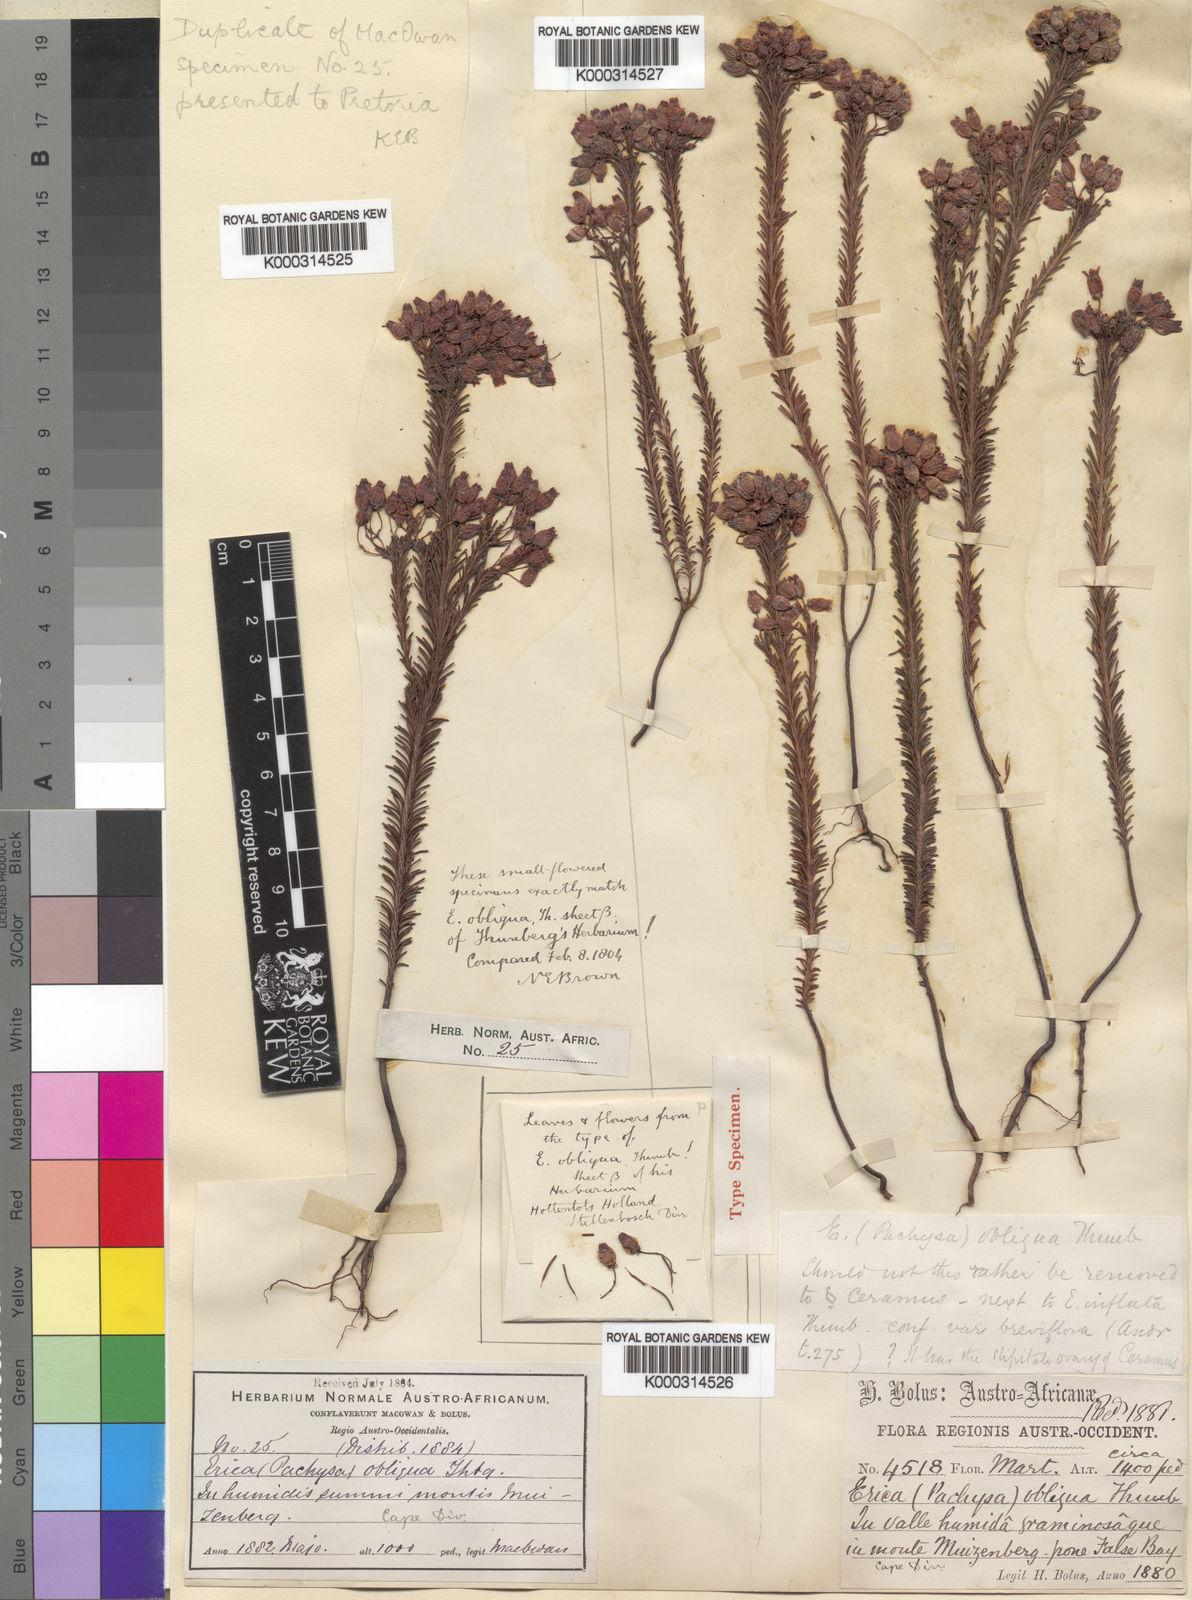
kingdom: Plantae
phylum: Tracheophyta
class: Magnoliopsida
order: Ericales
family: Ericaceae
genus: Erica
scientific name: Erica
